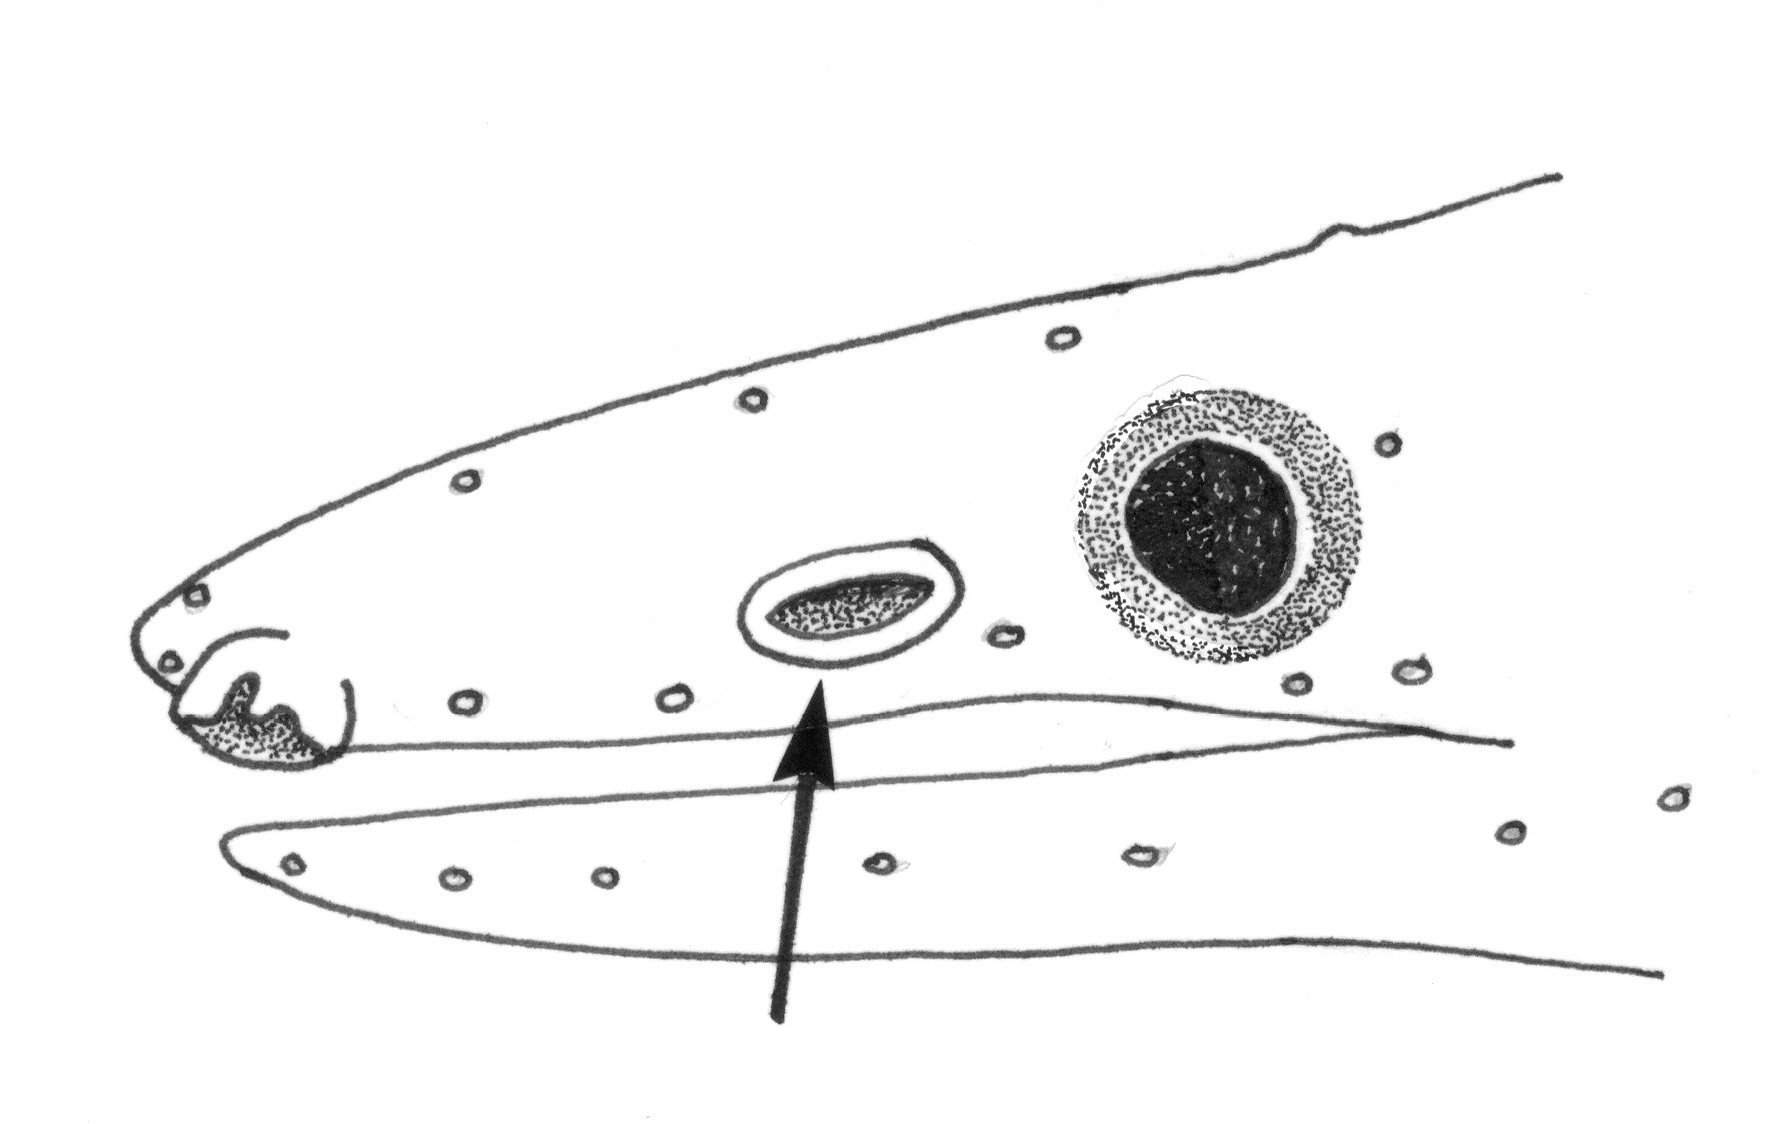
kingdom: Animalia
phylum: Chordata
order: Anguilliformes
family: Ophichthidae
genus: Neenchelys
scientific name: Neenchelys
